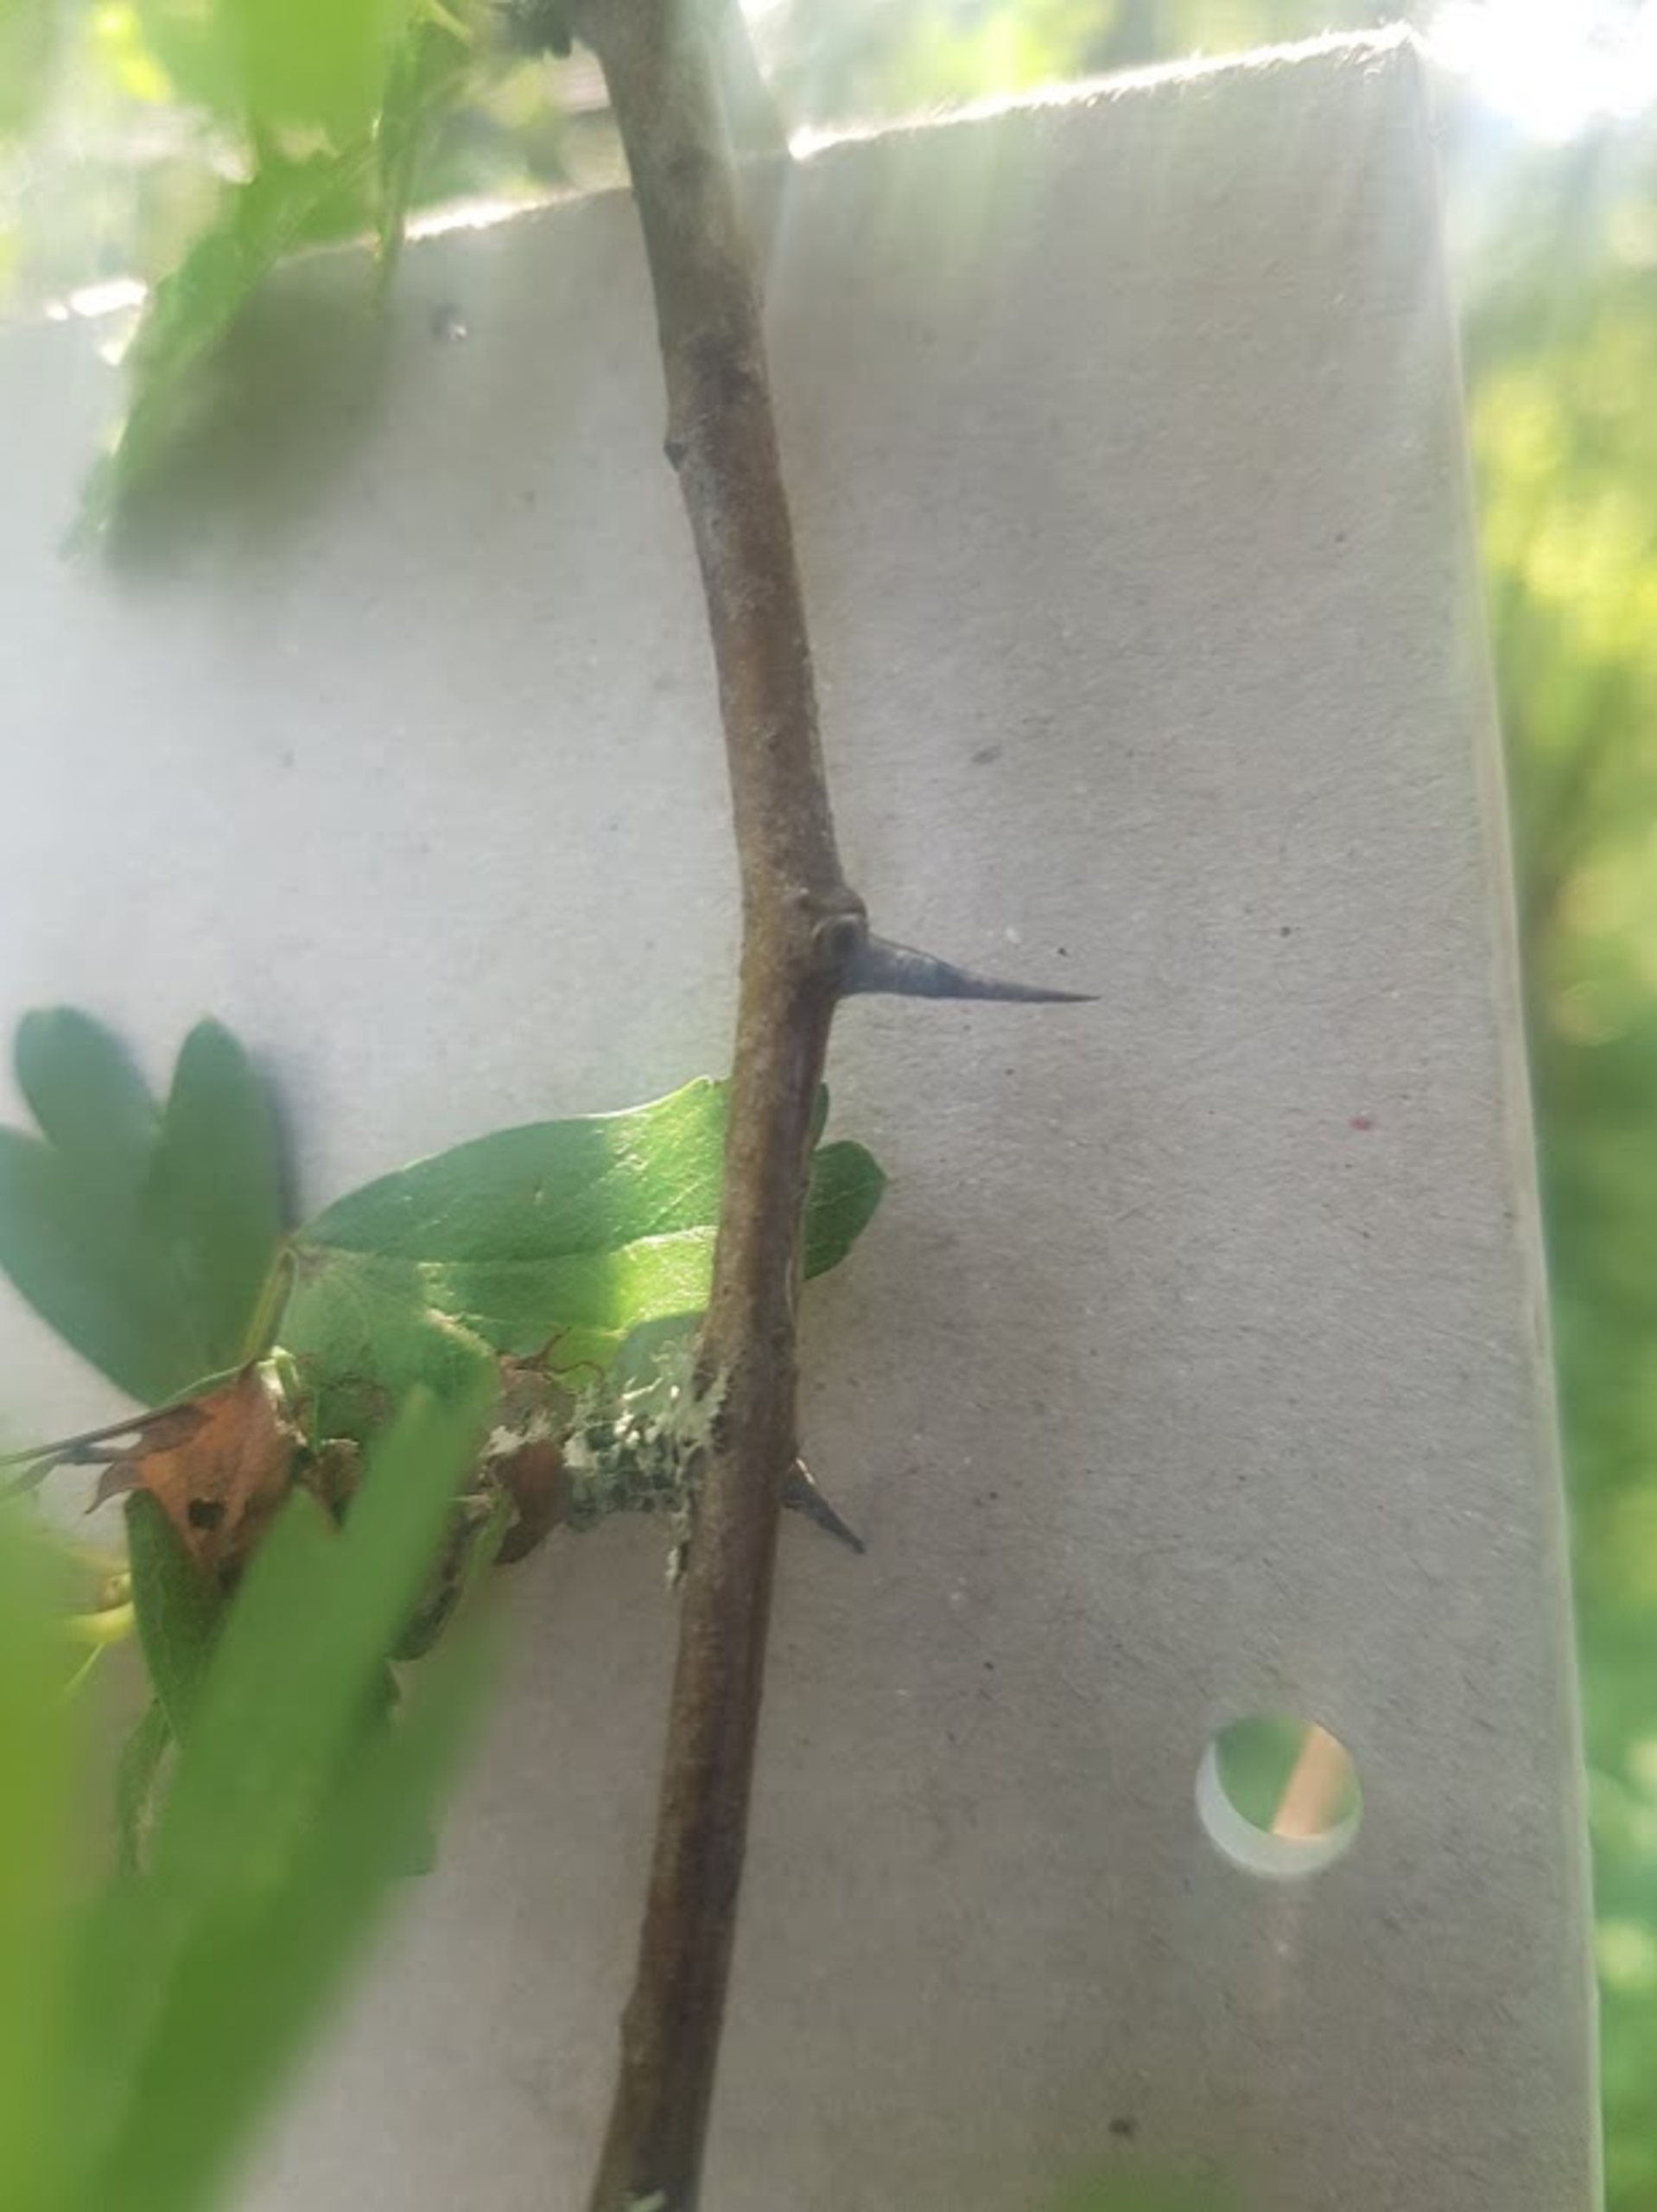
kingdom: Plantae
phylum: Tracheophyta
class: Magnoliopsida
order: Rosales
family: Rosaceae
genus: Crataegus
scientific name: Crataegus monogyna
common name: Engriflet hvidtjørn
